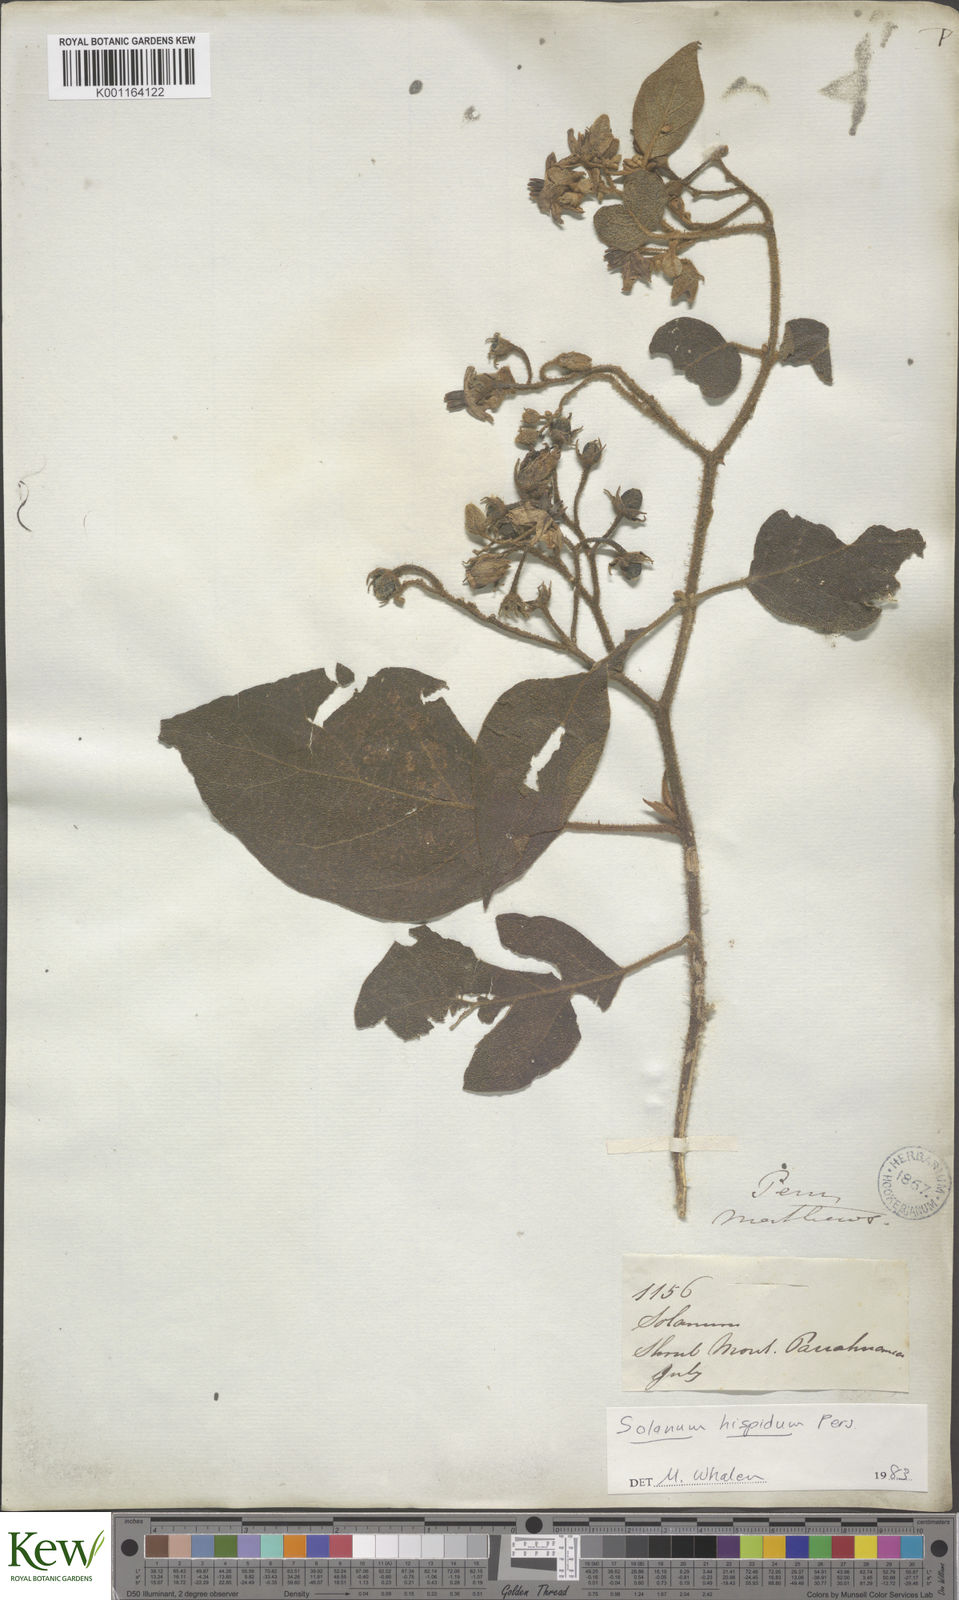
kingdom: Plantae
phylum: Tracheophyta
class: Magnoliopsida
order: Solanales
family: Solanaceae
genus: Solanum
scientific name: Solanum asperolanatum
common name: Devil's-fig
